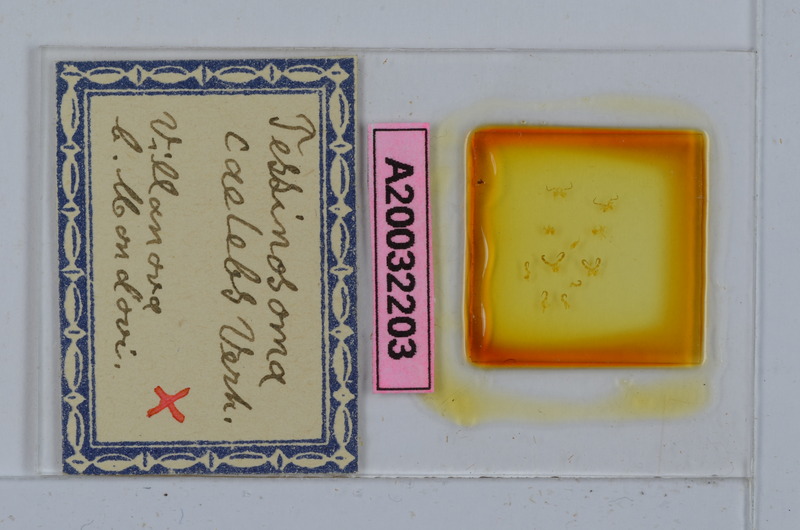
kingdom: Animalia
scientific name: Animalia
